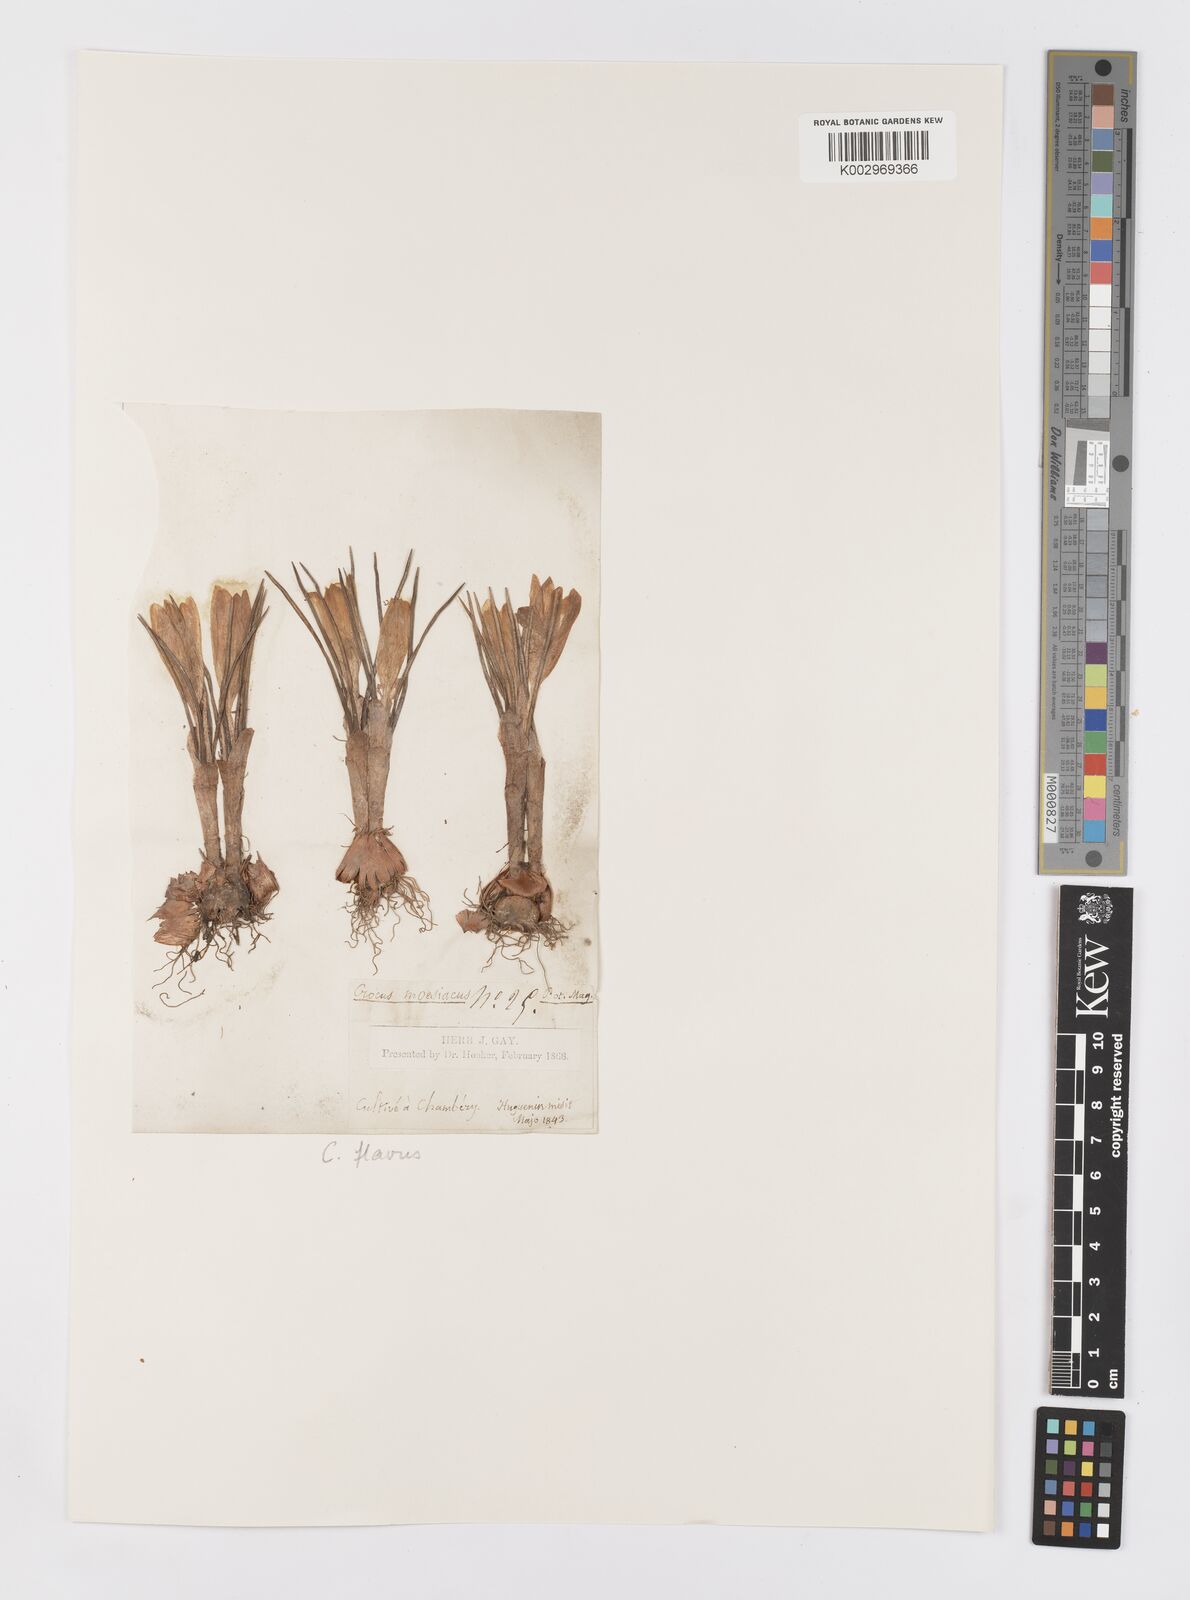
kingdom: Plantae
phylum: Tracheophyta
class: Liliopsida
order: Asparagales
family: Iridaceae
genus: Crocus
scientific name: Crocus flavus
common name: Yellow crocus
